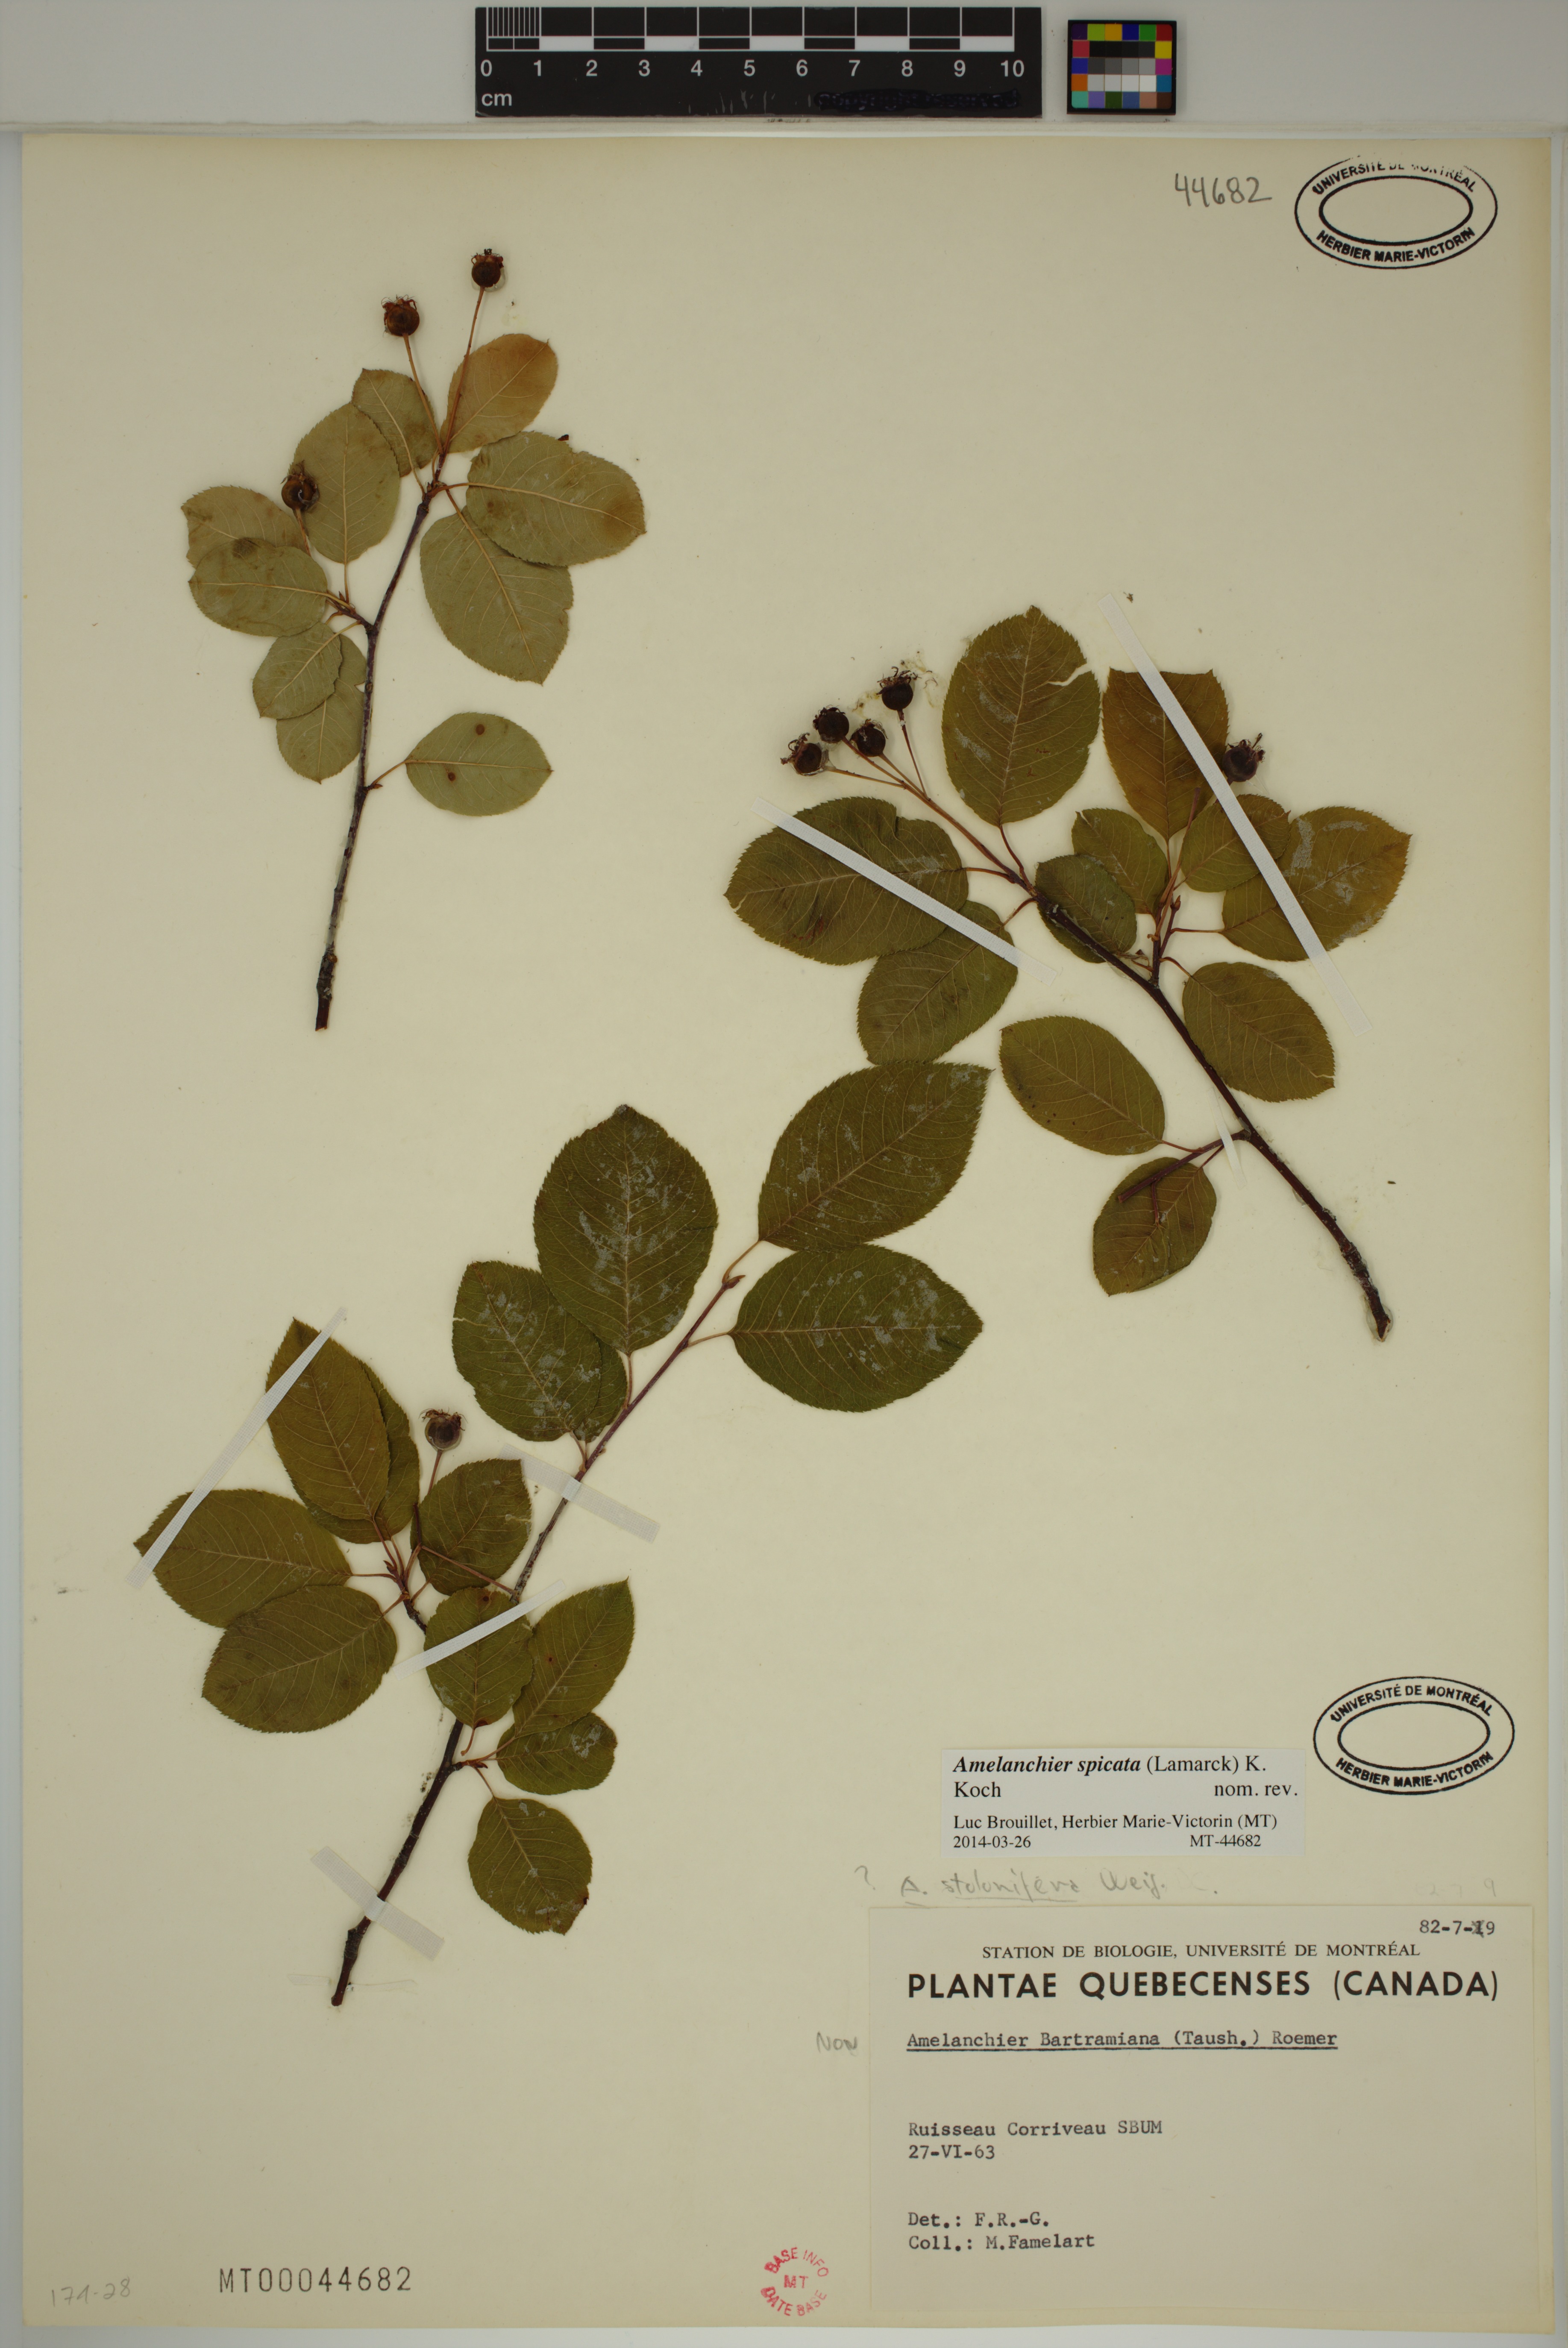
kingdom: Plantae
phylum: Tracheophyta
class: Magnoliopsida
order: Rosales
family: Rosaceae
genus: Amelanchier
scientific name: Amelanchier humilis
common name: Low juneberry
